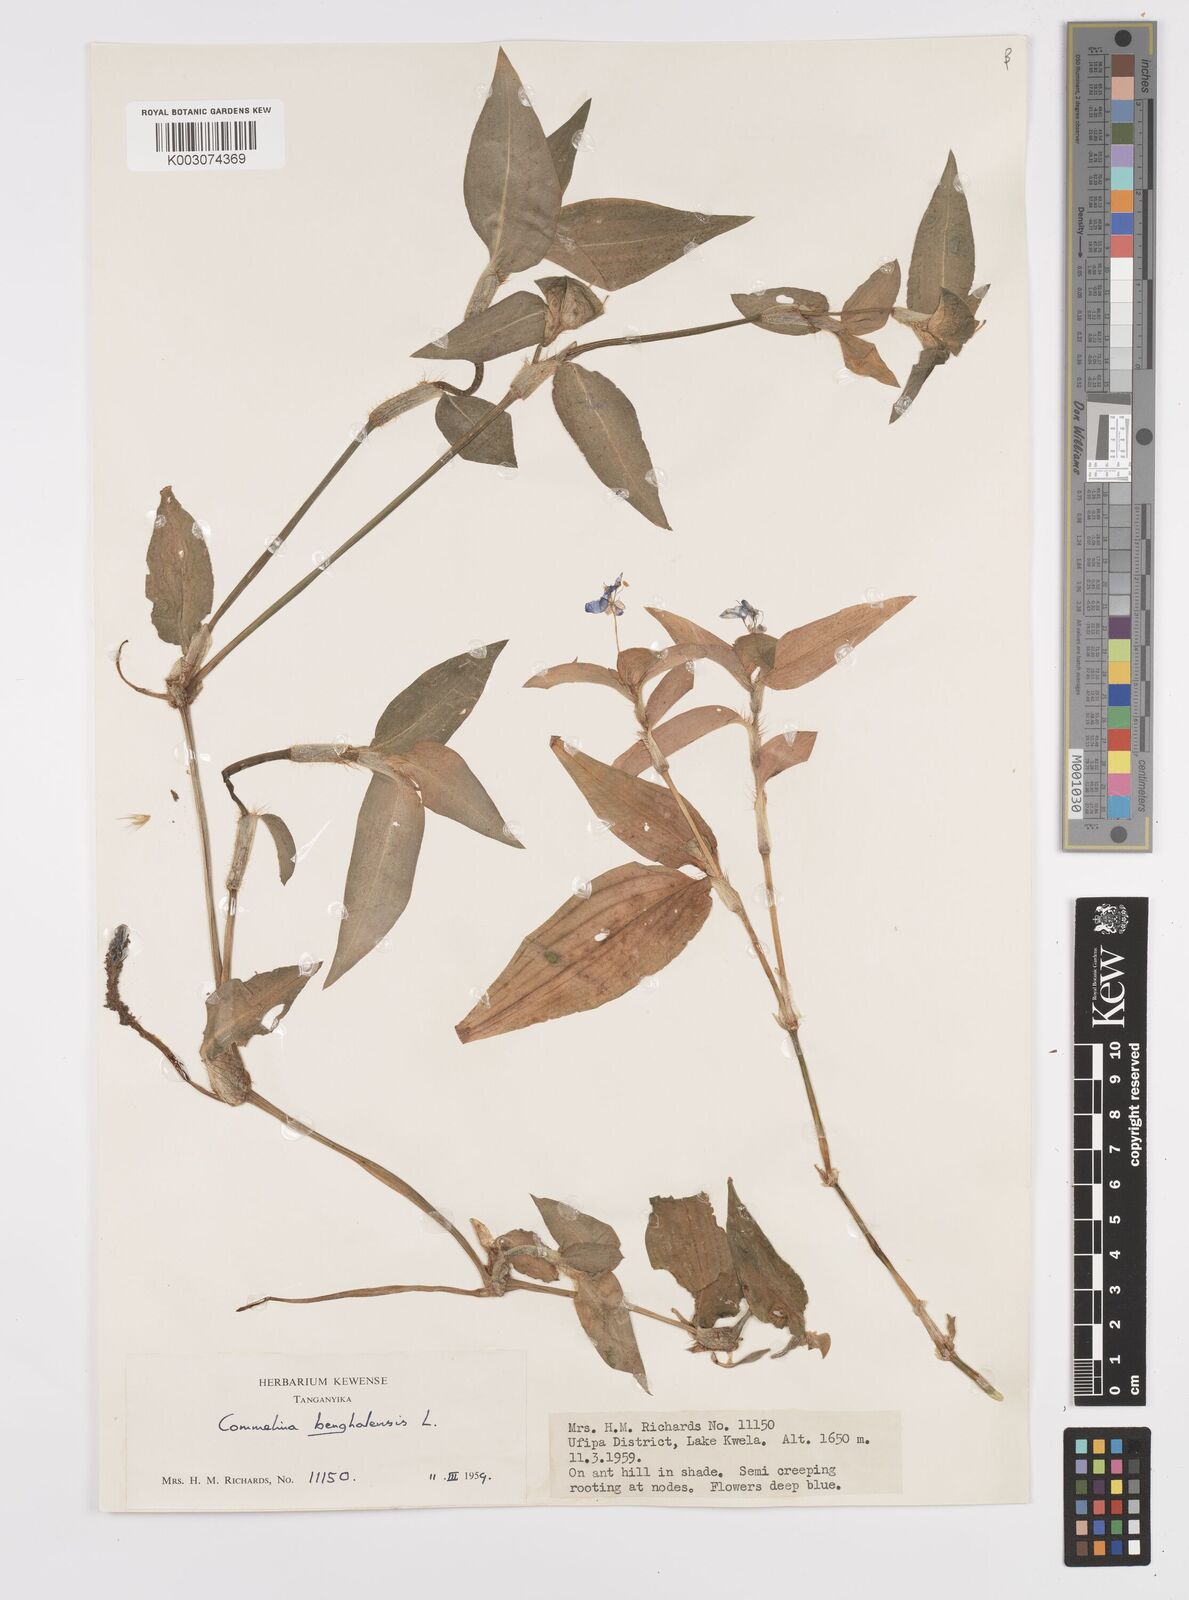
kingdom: Plantae
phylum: Tracheophyta
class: Liliopsida
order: Commelinales
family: Commelinaceae
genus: Commelina
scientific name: Commelina benghalensis
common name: Jio
